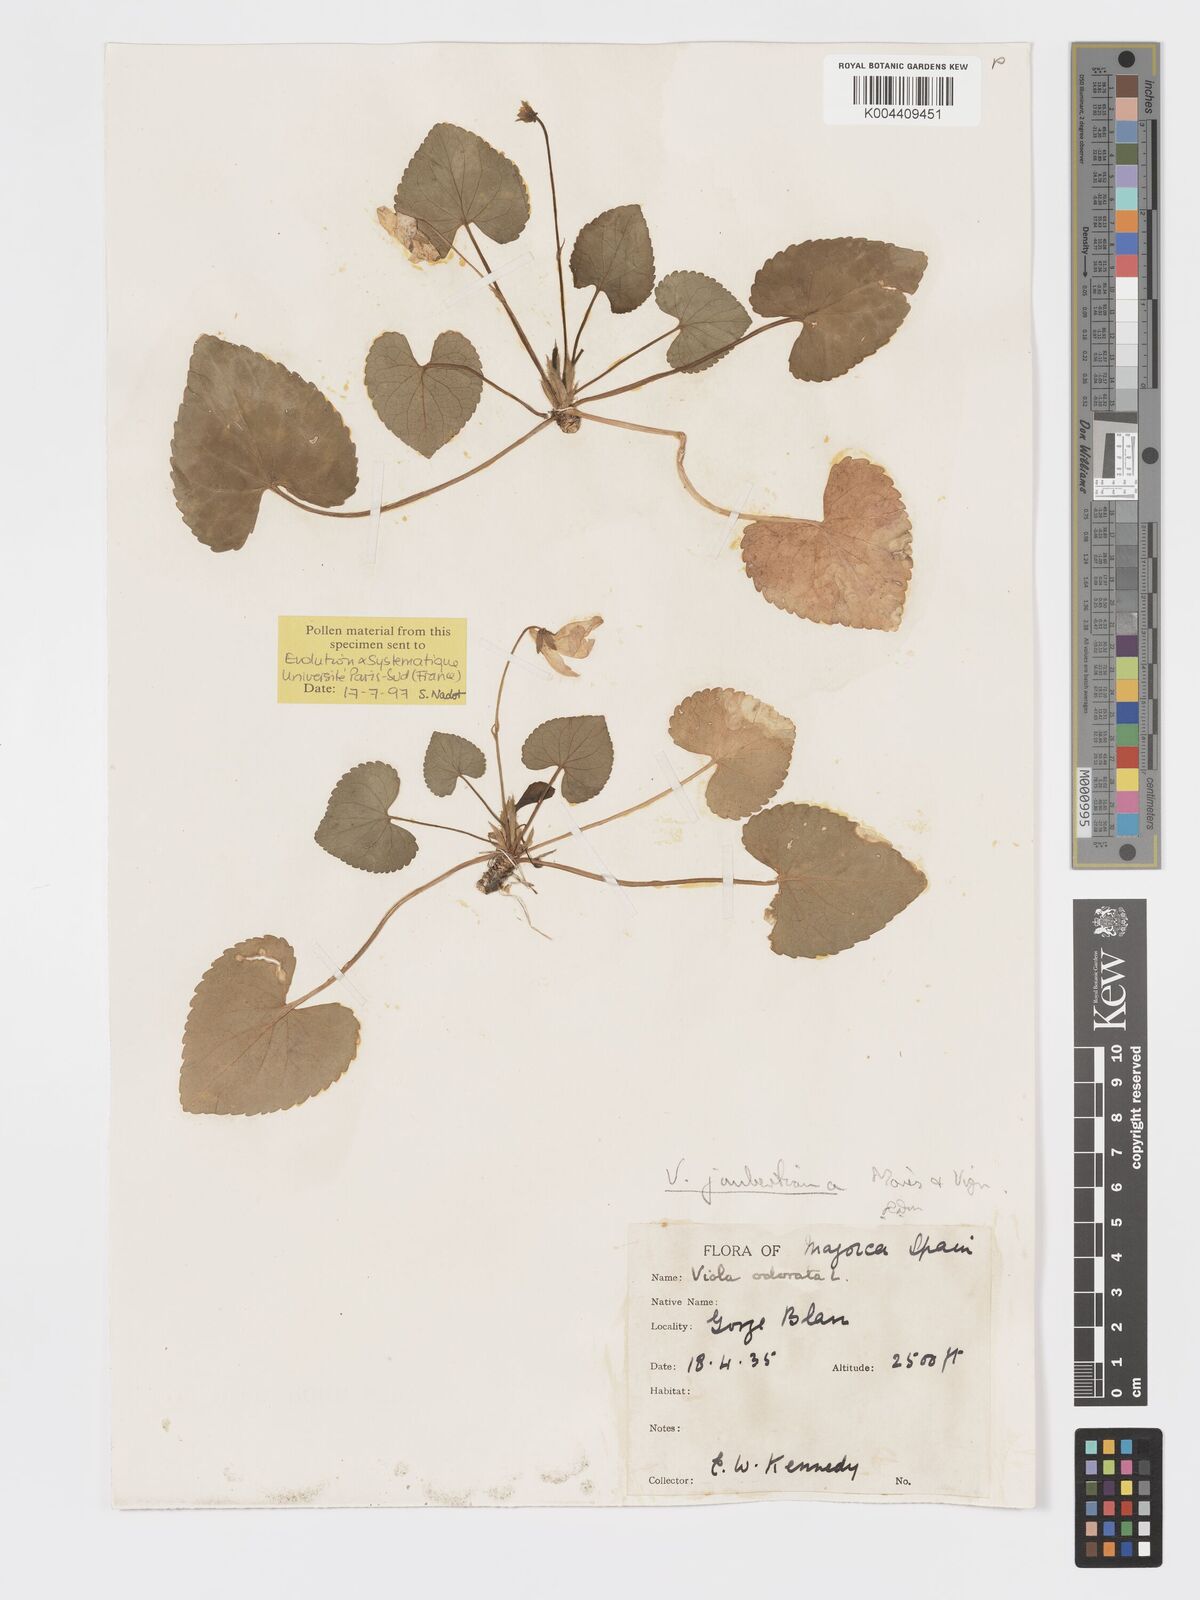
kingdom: Plantae
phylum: Tracheophyta
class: Magnoliopsida
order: Malpighiales
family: Violaceae
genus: Viola
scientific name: Viola jaubertiana
